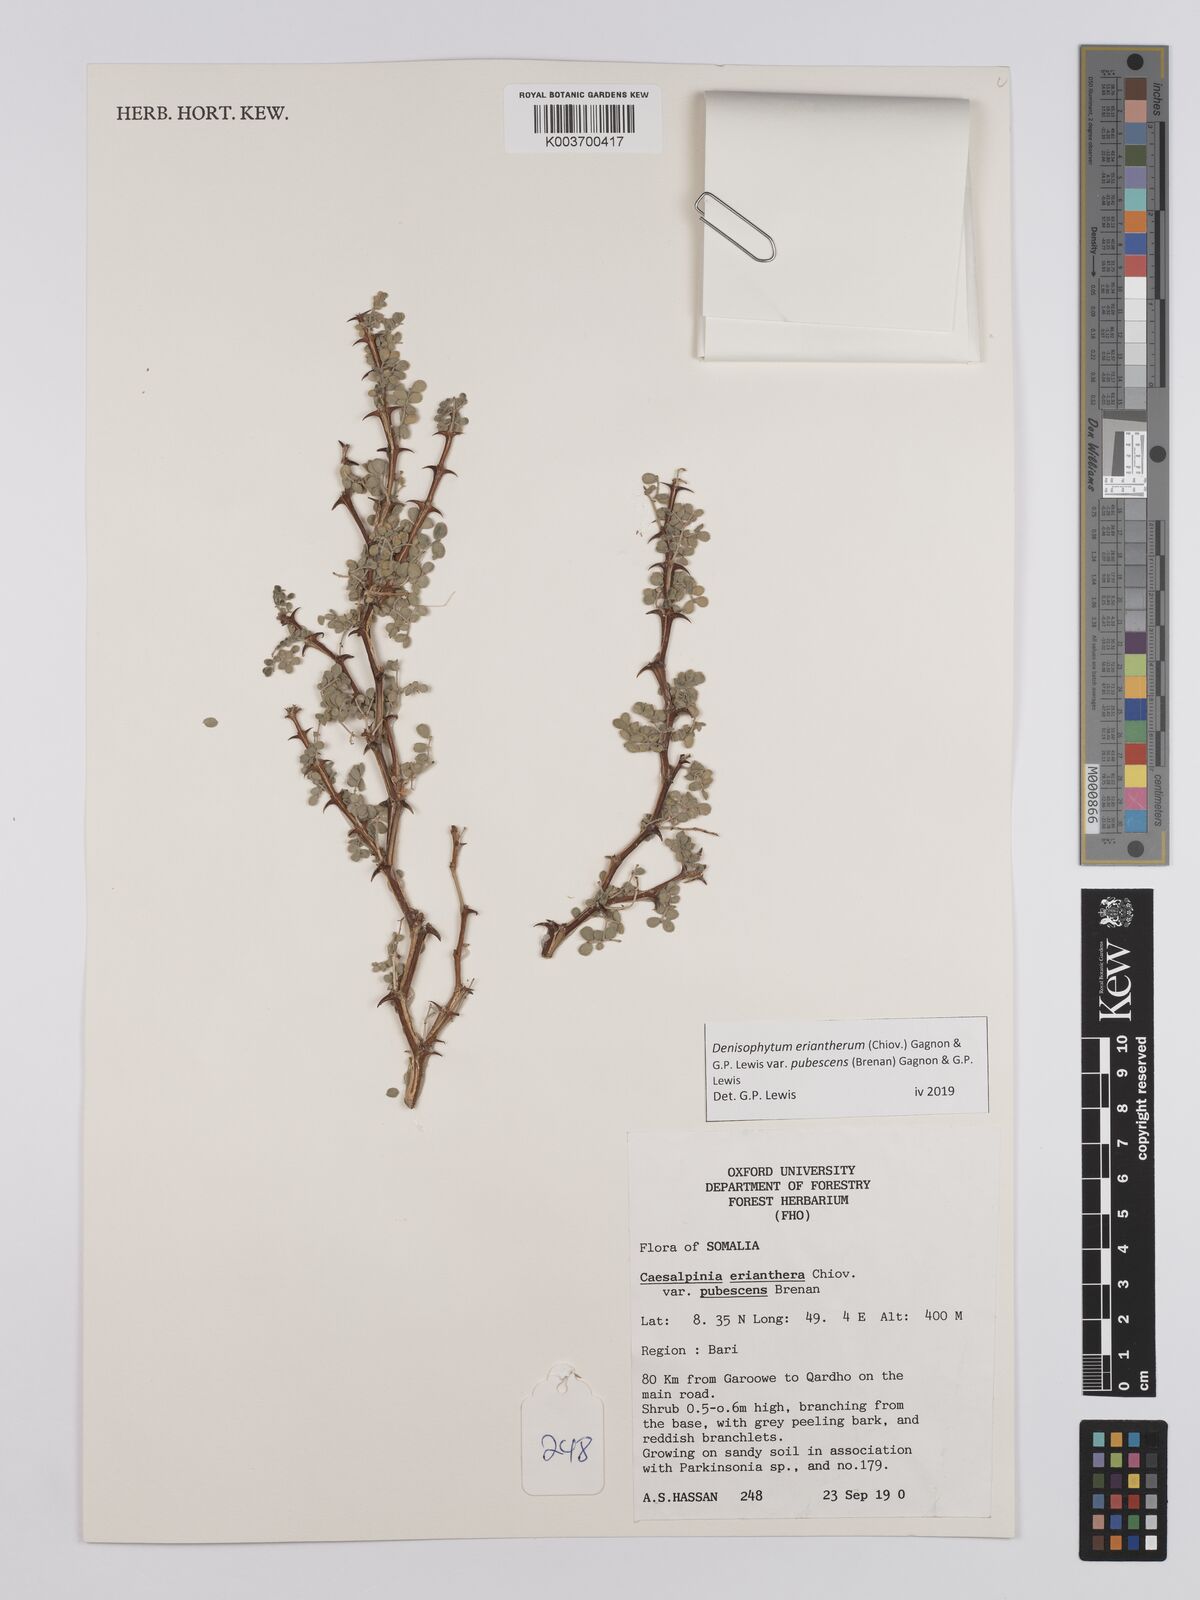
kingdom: Plantae
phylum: Tracheophyta
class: Magnoliopsida
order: Fabales
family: Fabaceae
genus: Denisophytum
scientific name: Denisophytum eriantherum
